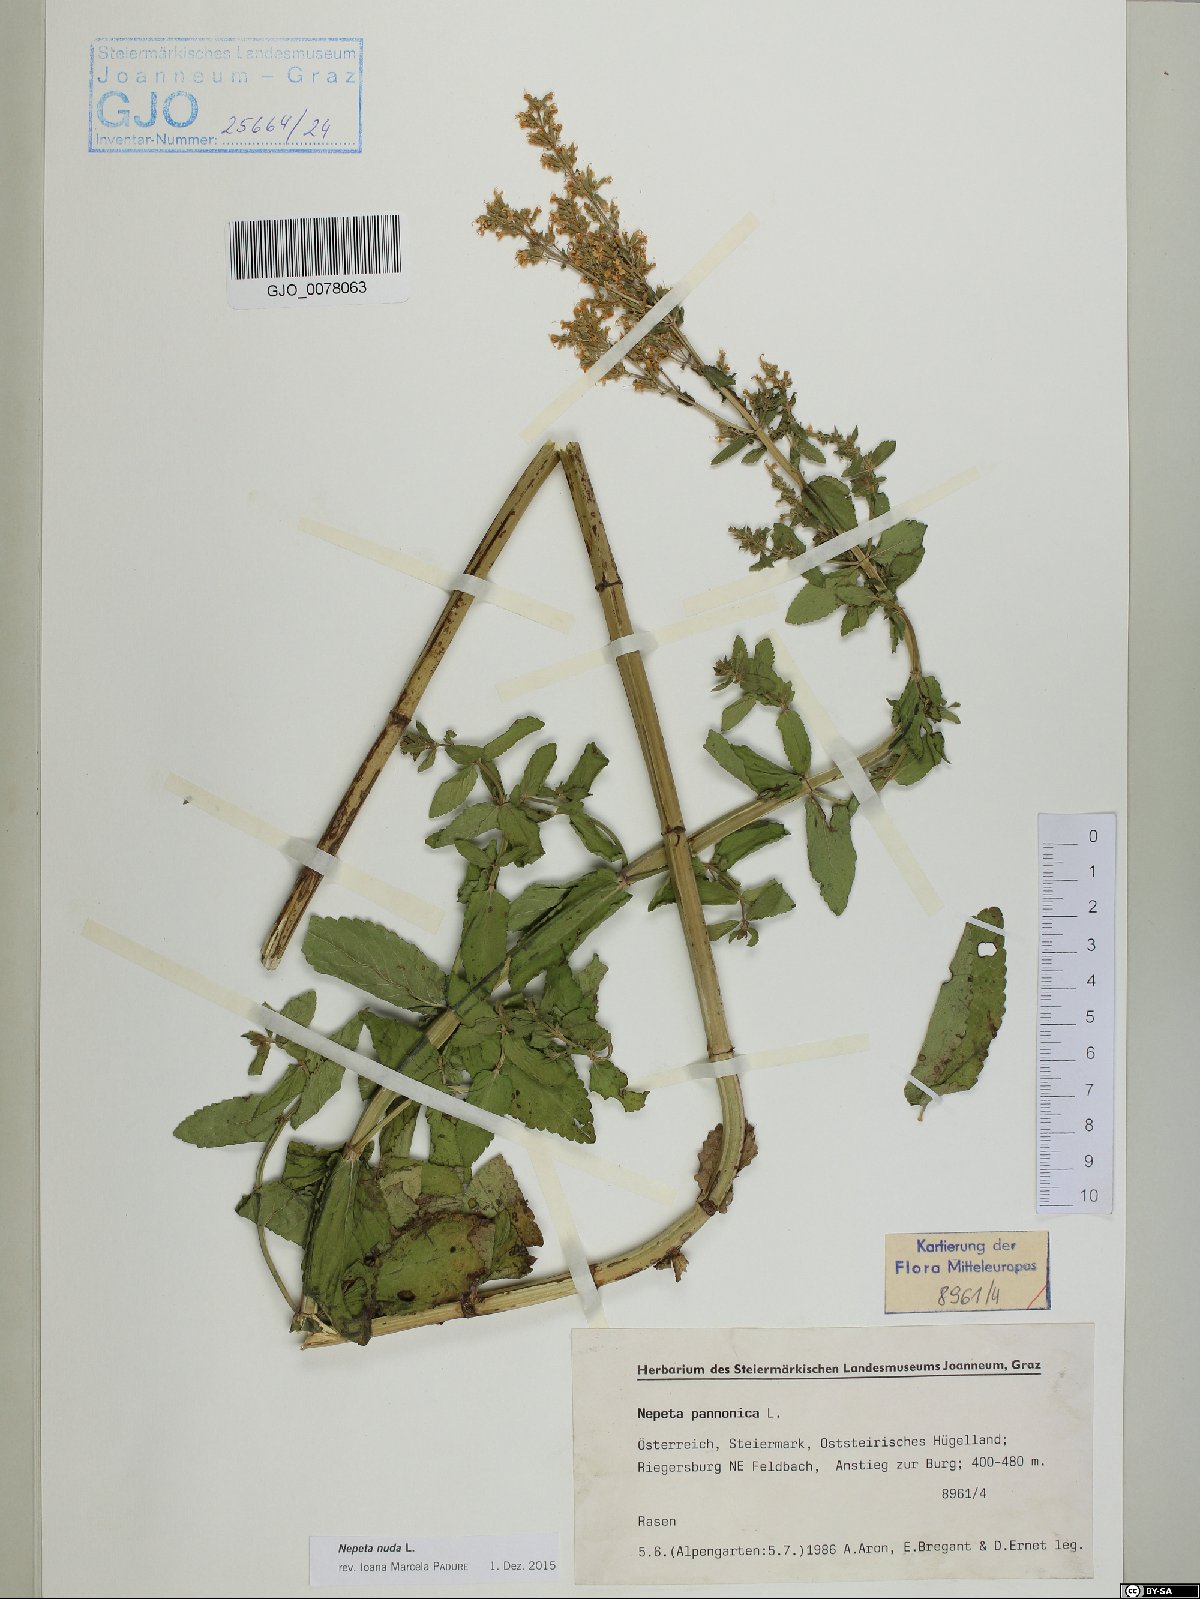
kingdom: Plantae
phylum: Tracheophyta
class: Magnoliopsida
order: Lamiales
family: Lamiaceae
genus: Nepeta
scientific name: Nepeta nuda
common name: Hairless catmint
